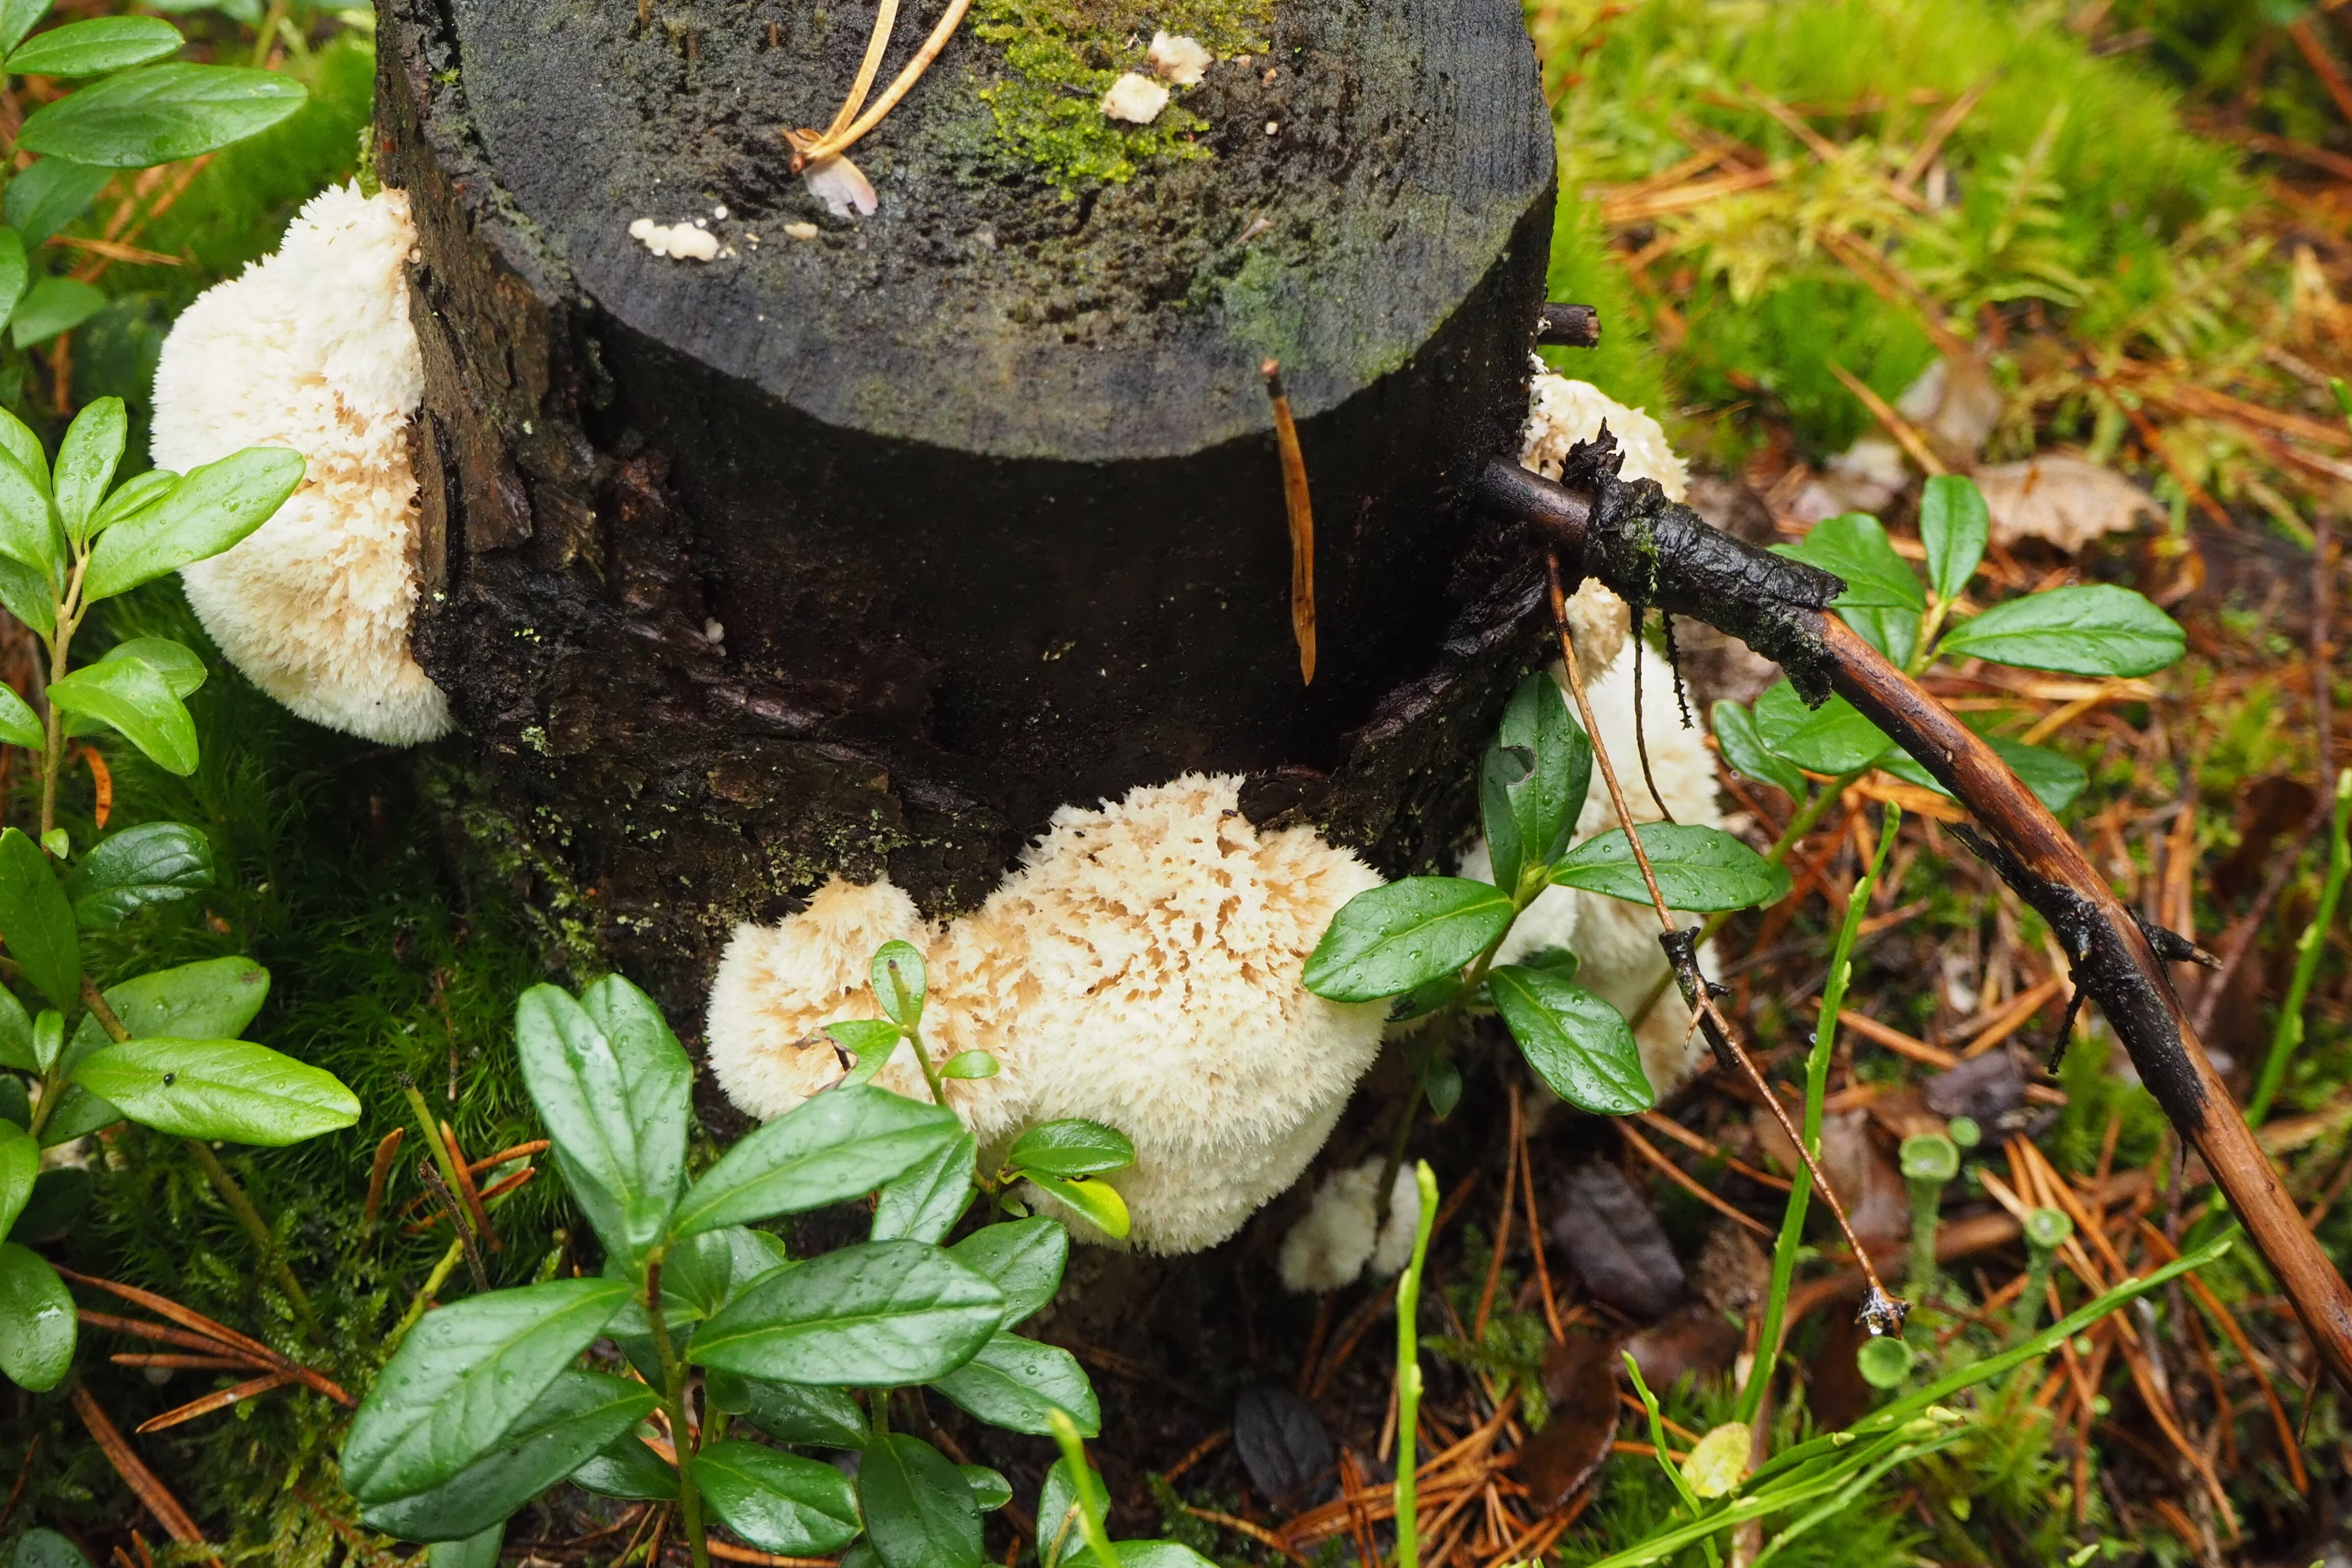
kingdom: Fungi
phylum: Basidiomycota
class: Agaricomycetes
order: Polyporales
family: Dacryobolaceae
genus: Postia
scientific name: Postia ptychogaster
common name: Powderpuff bracket
